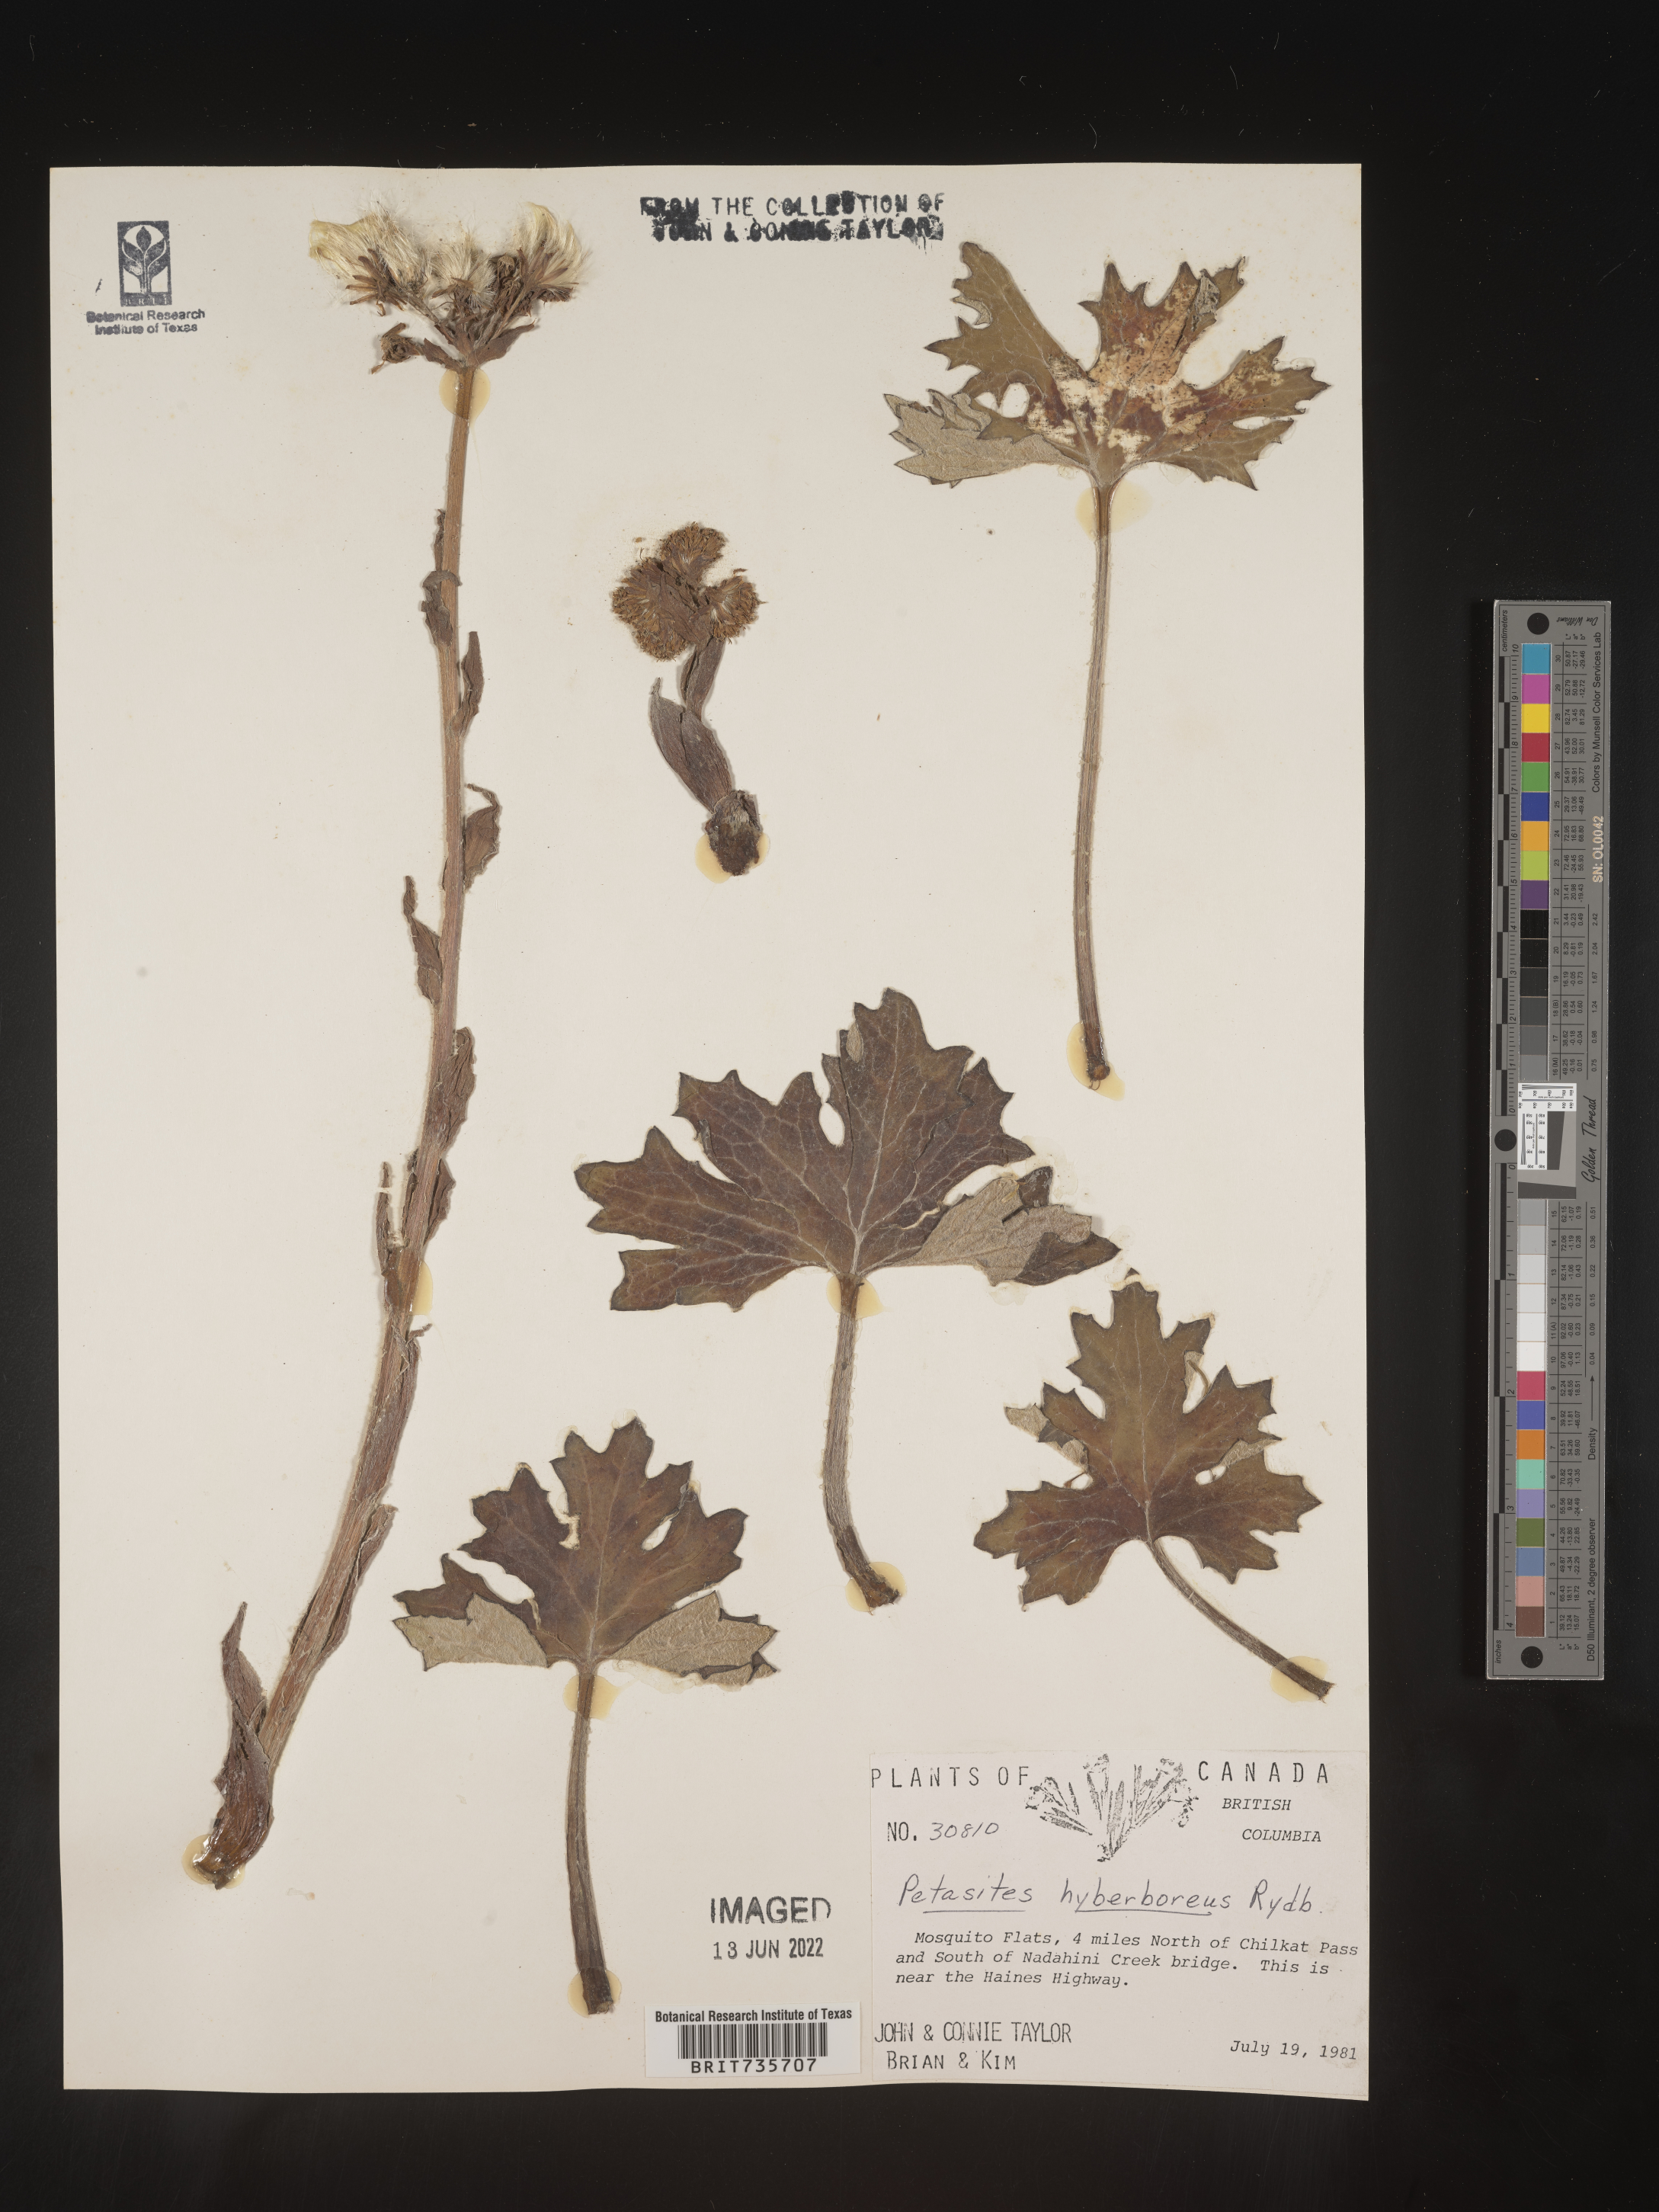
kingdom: Plantae
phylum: Tracheophyta
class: Magnoliopsida
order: Asterales
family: Asteraceae
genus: Petasites
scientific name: Petasites frigidus
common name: Arctic butterbur
